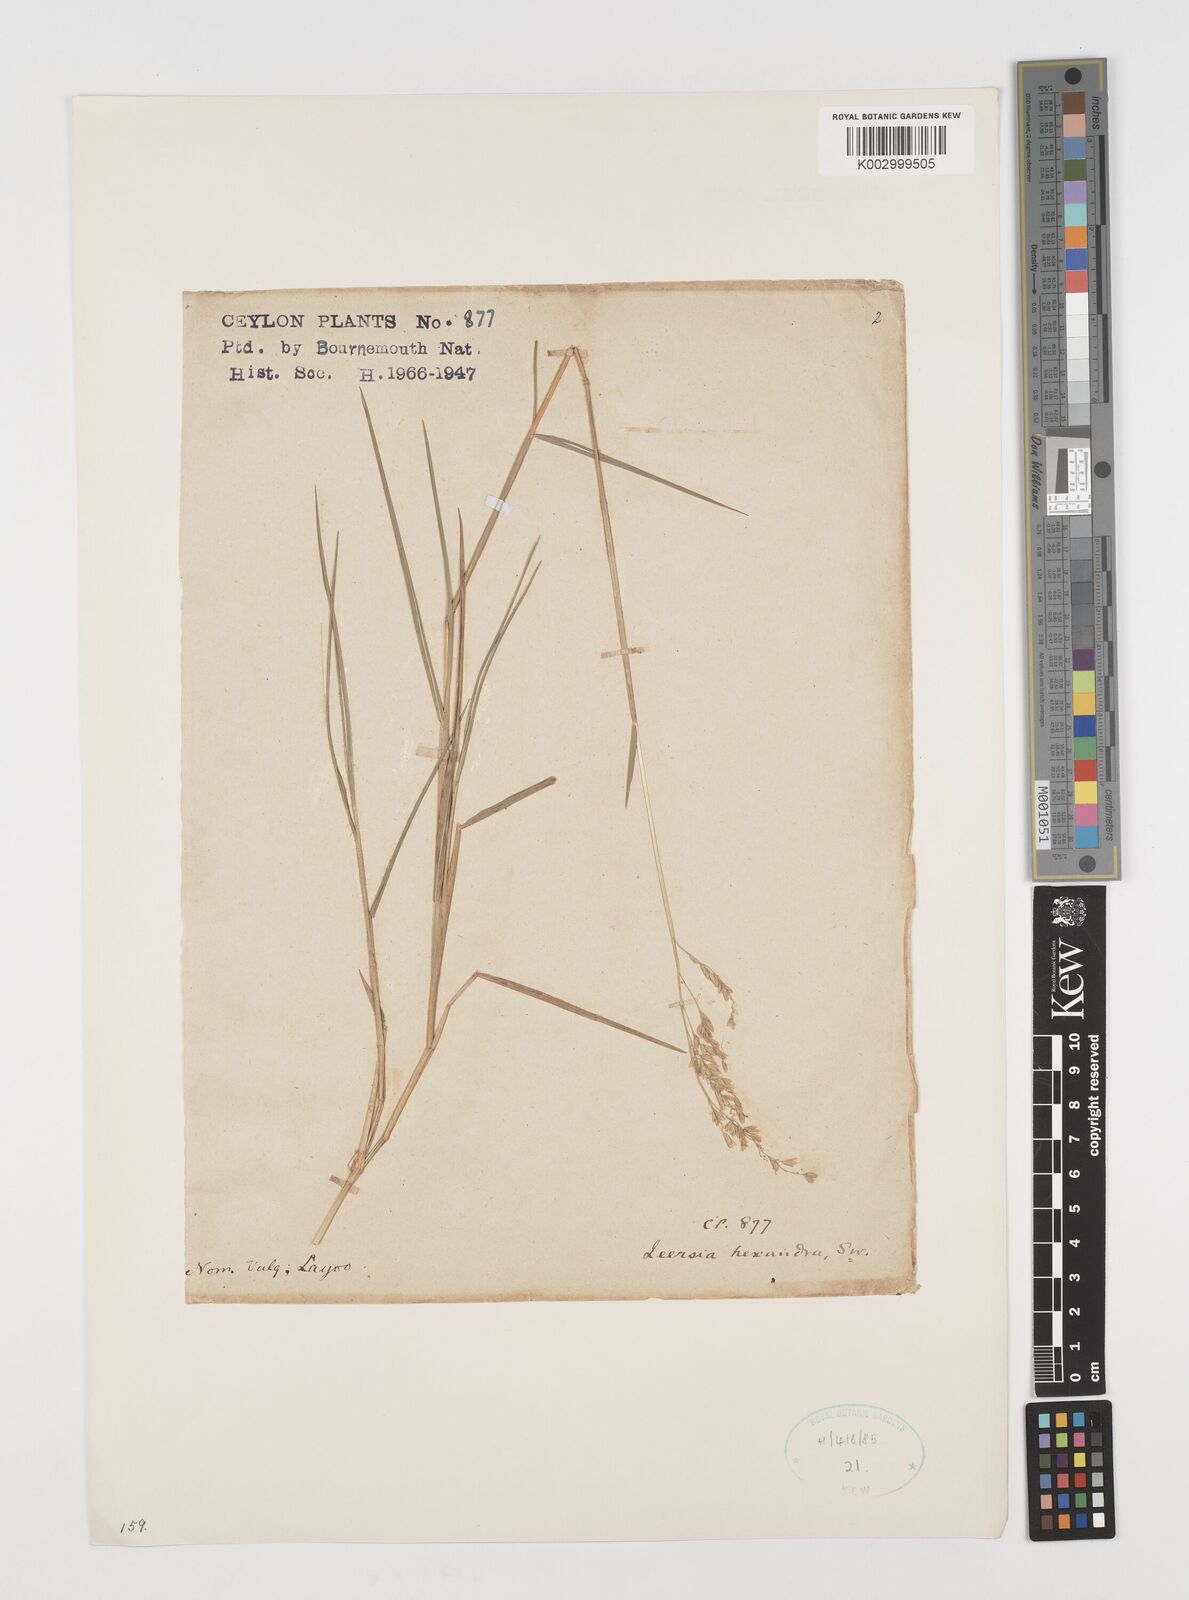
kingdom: Plantae
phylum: Tracheophyta
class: Liliopsida
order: Poales
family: Poaceae
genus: Leersia
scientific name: Leersia hexandra
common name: Southern cut grass
